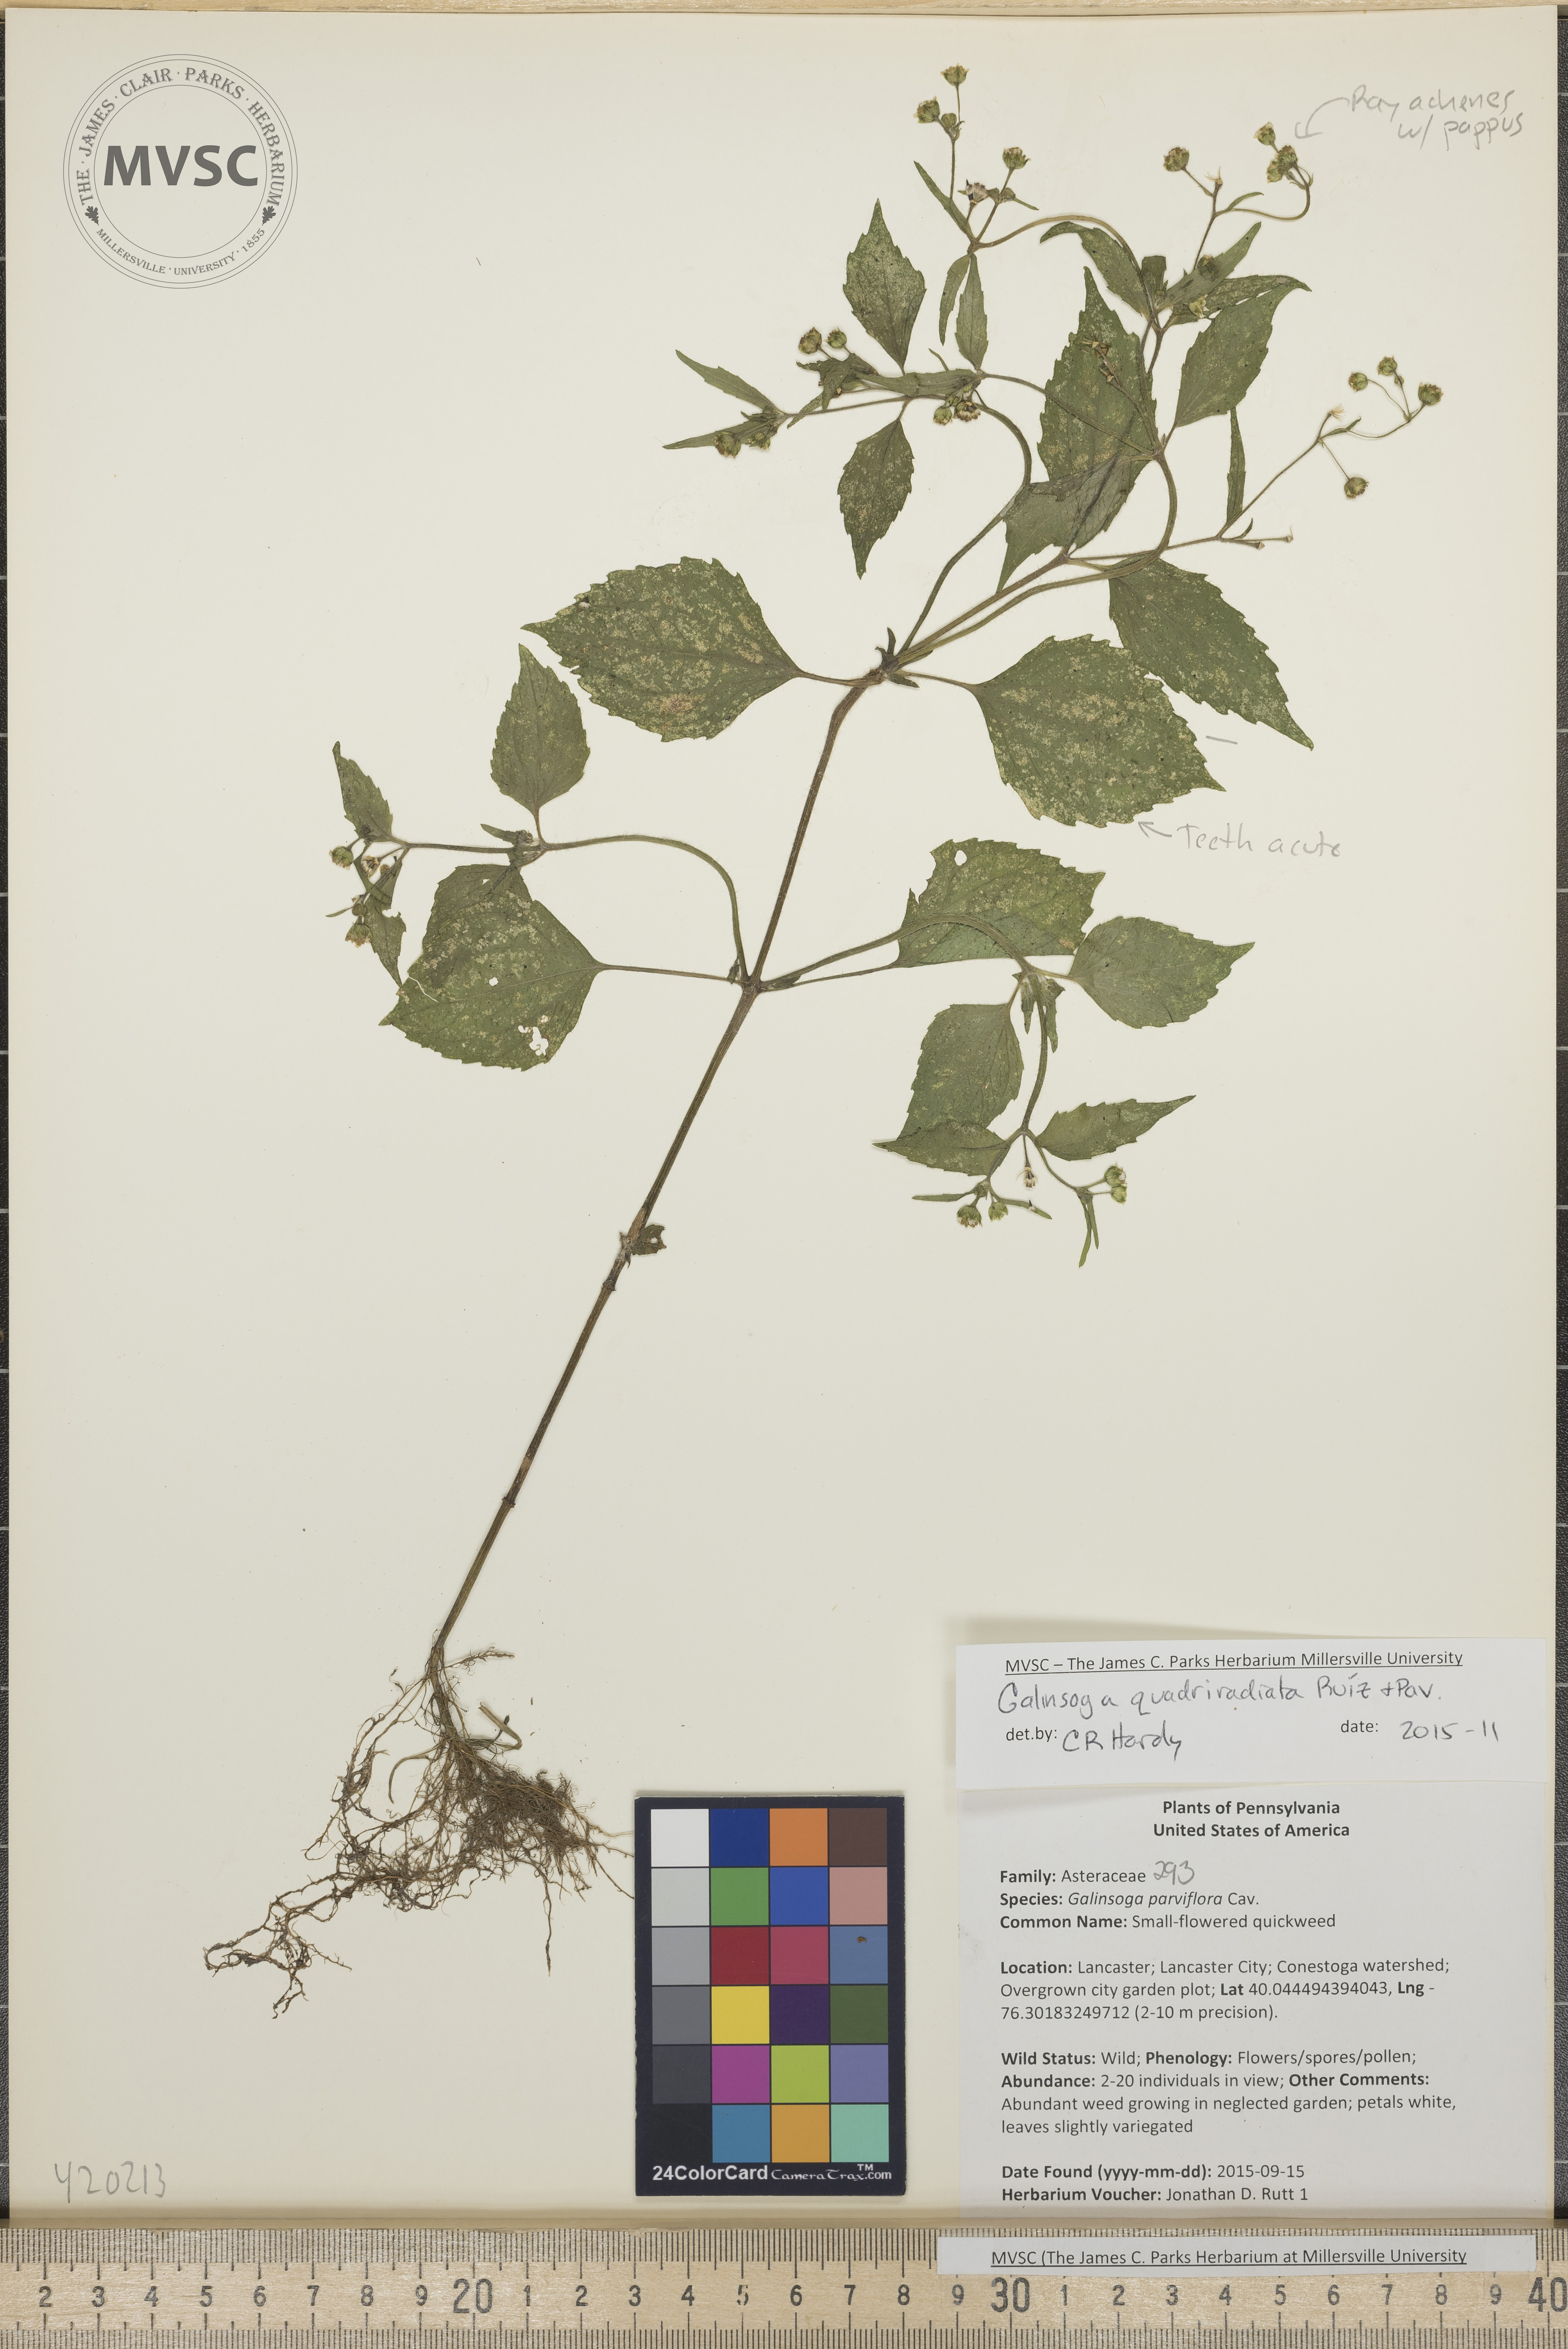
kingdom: Plantae
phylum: Tracheophyta
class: Magnoliopsida
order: Asterales
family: Asteraceae
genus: Galinsoga
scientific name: Galinsoga quadriradiata
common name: quickweed
